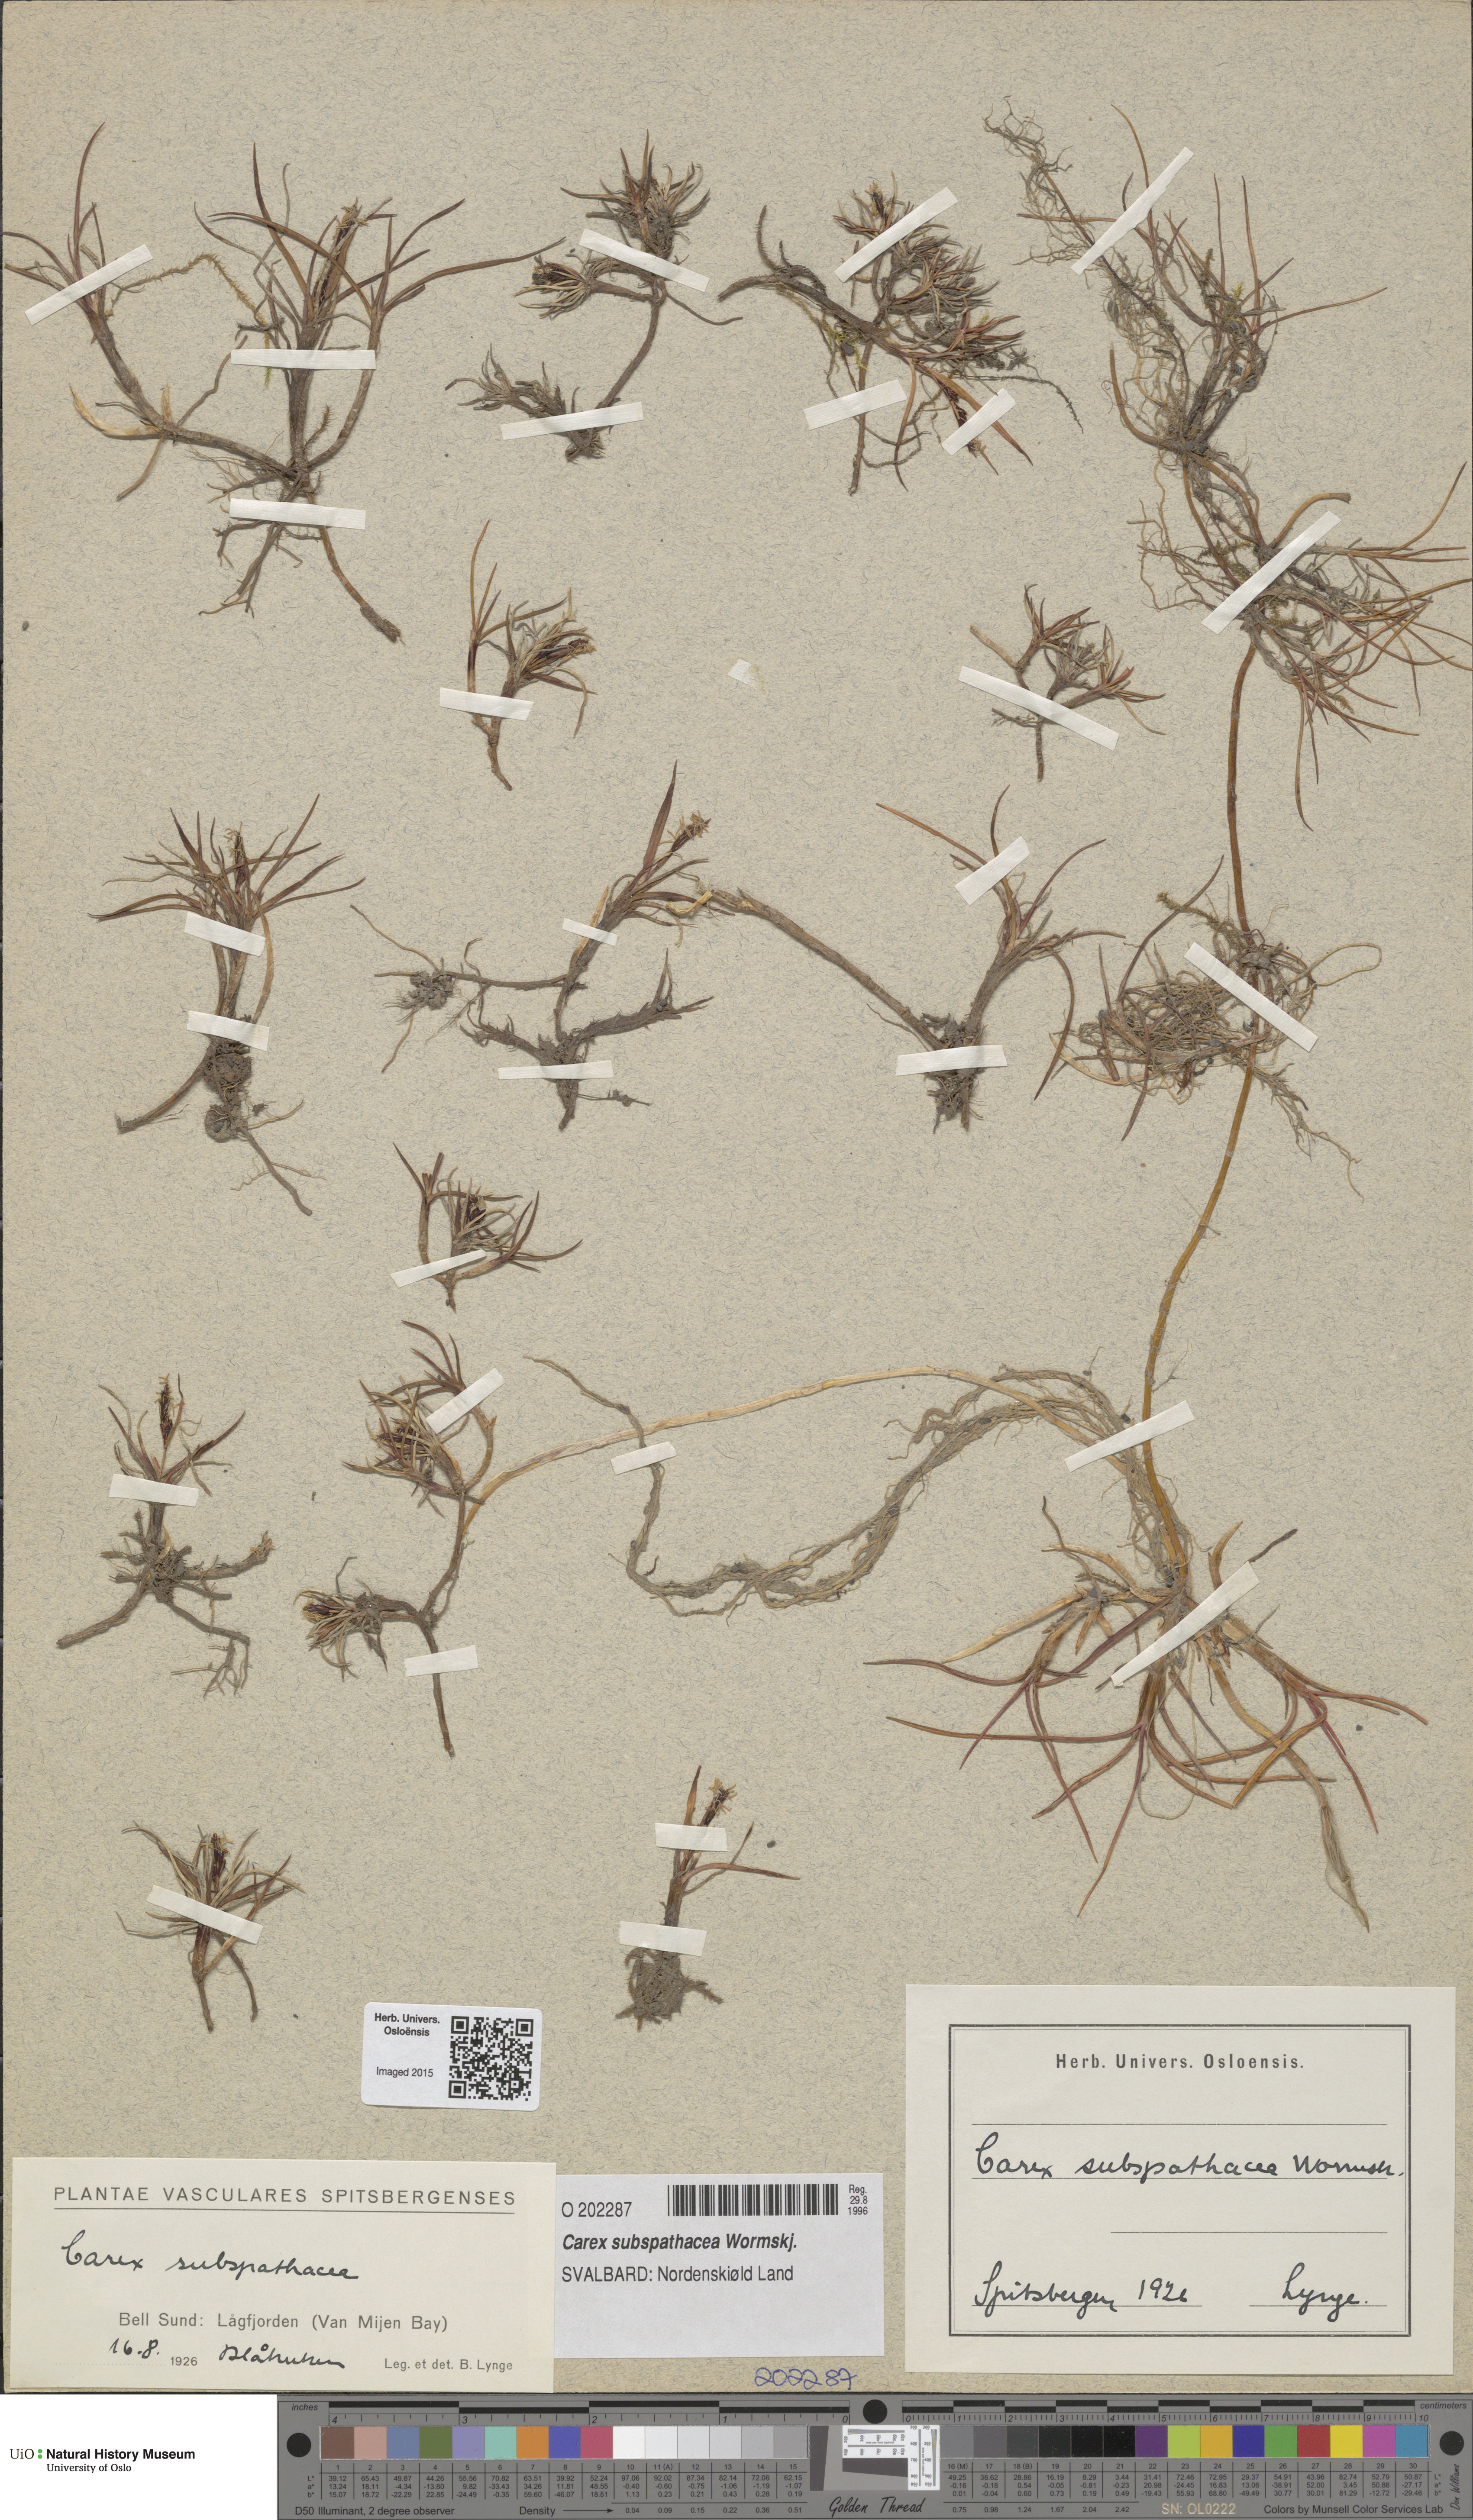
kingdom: Plantae
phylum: Tracheophyta
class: Liliopsida
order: Poales
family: Cyperaceae
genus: Carex
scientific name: Carex subspathacea
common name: Hoppner's sedge
